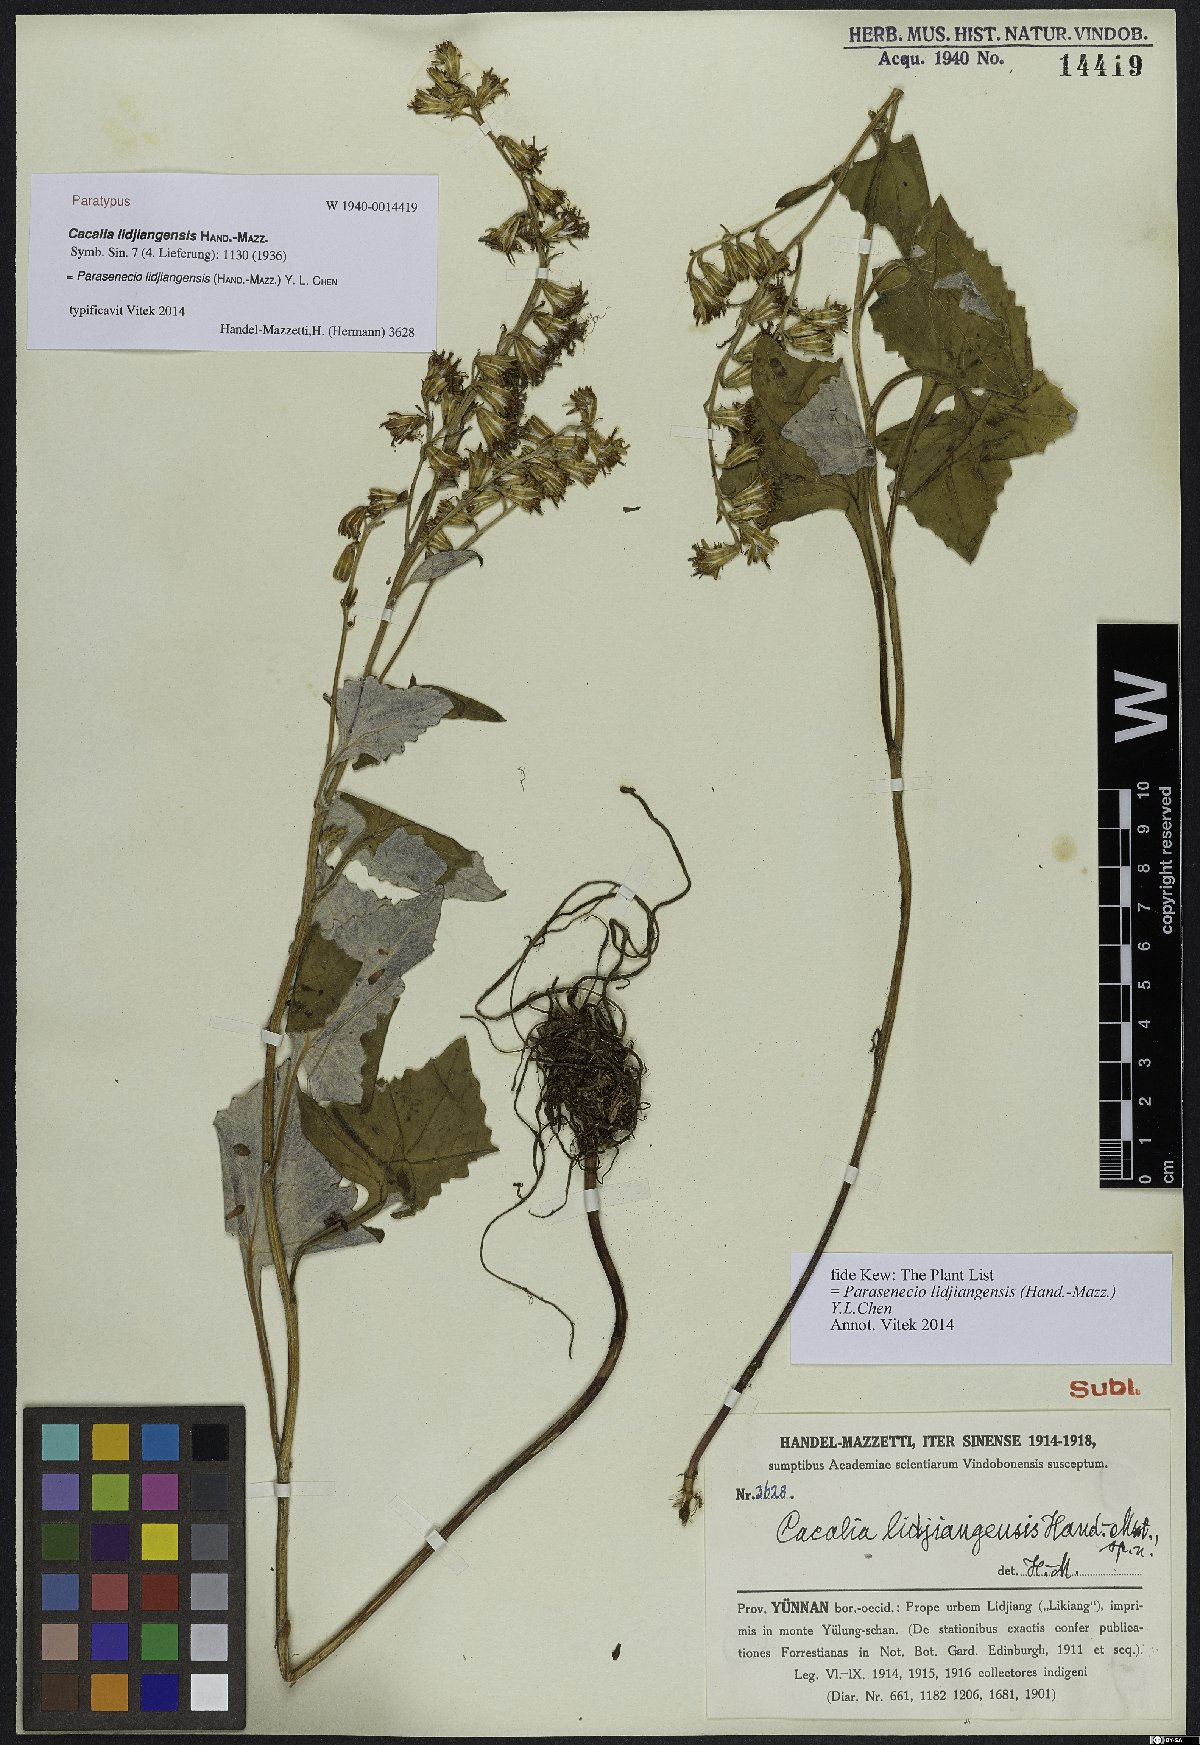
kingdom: Plantae
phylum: Tracheophyta
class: Magnoliopsida
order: Asterales
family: Asteraceae
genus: Parasenecio
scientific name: Parasenecio lidjiangensis
